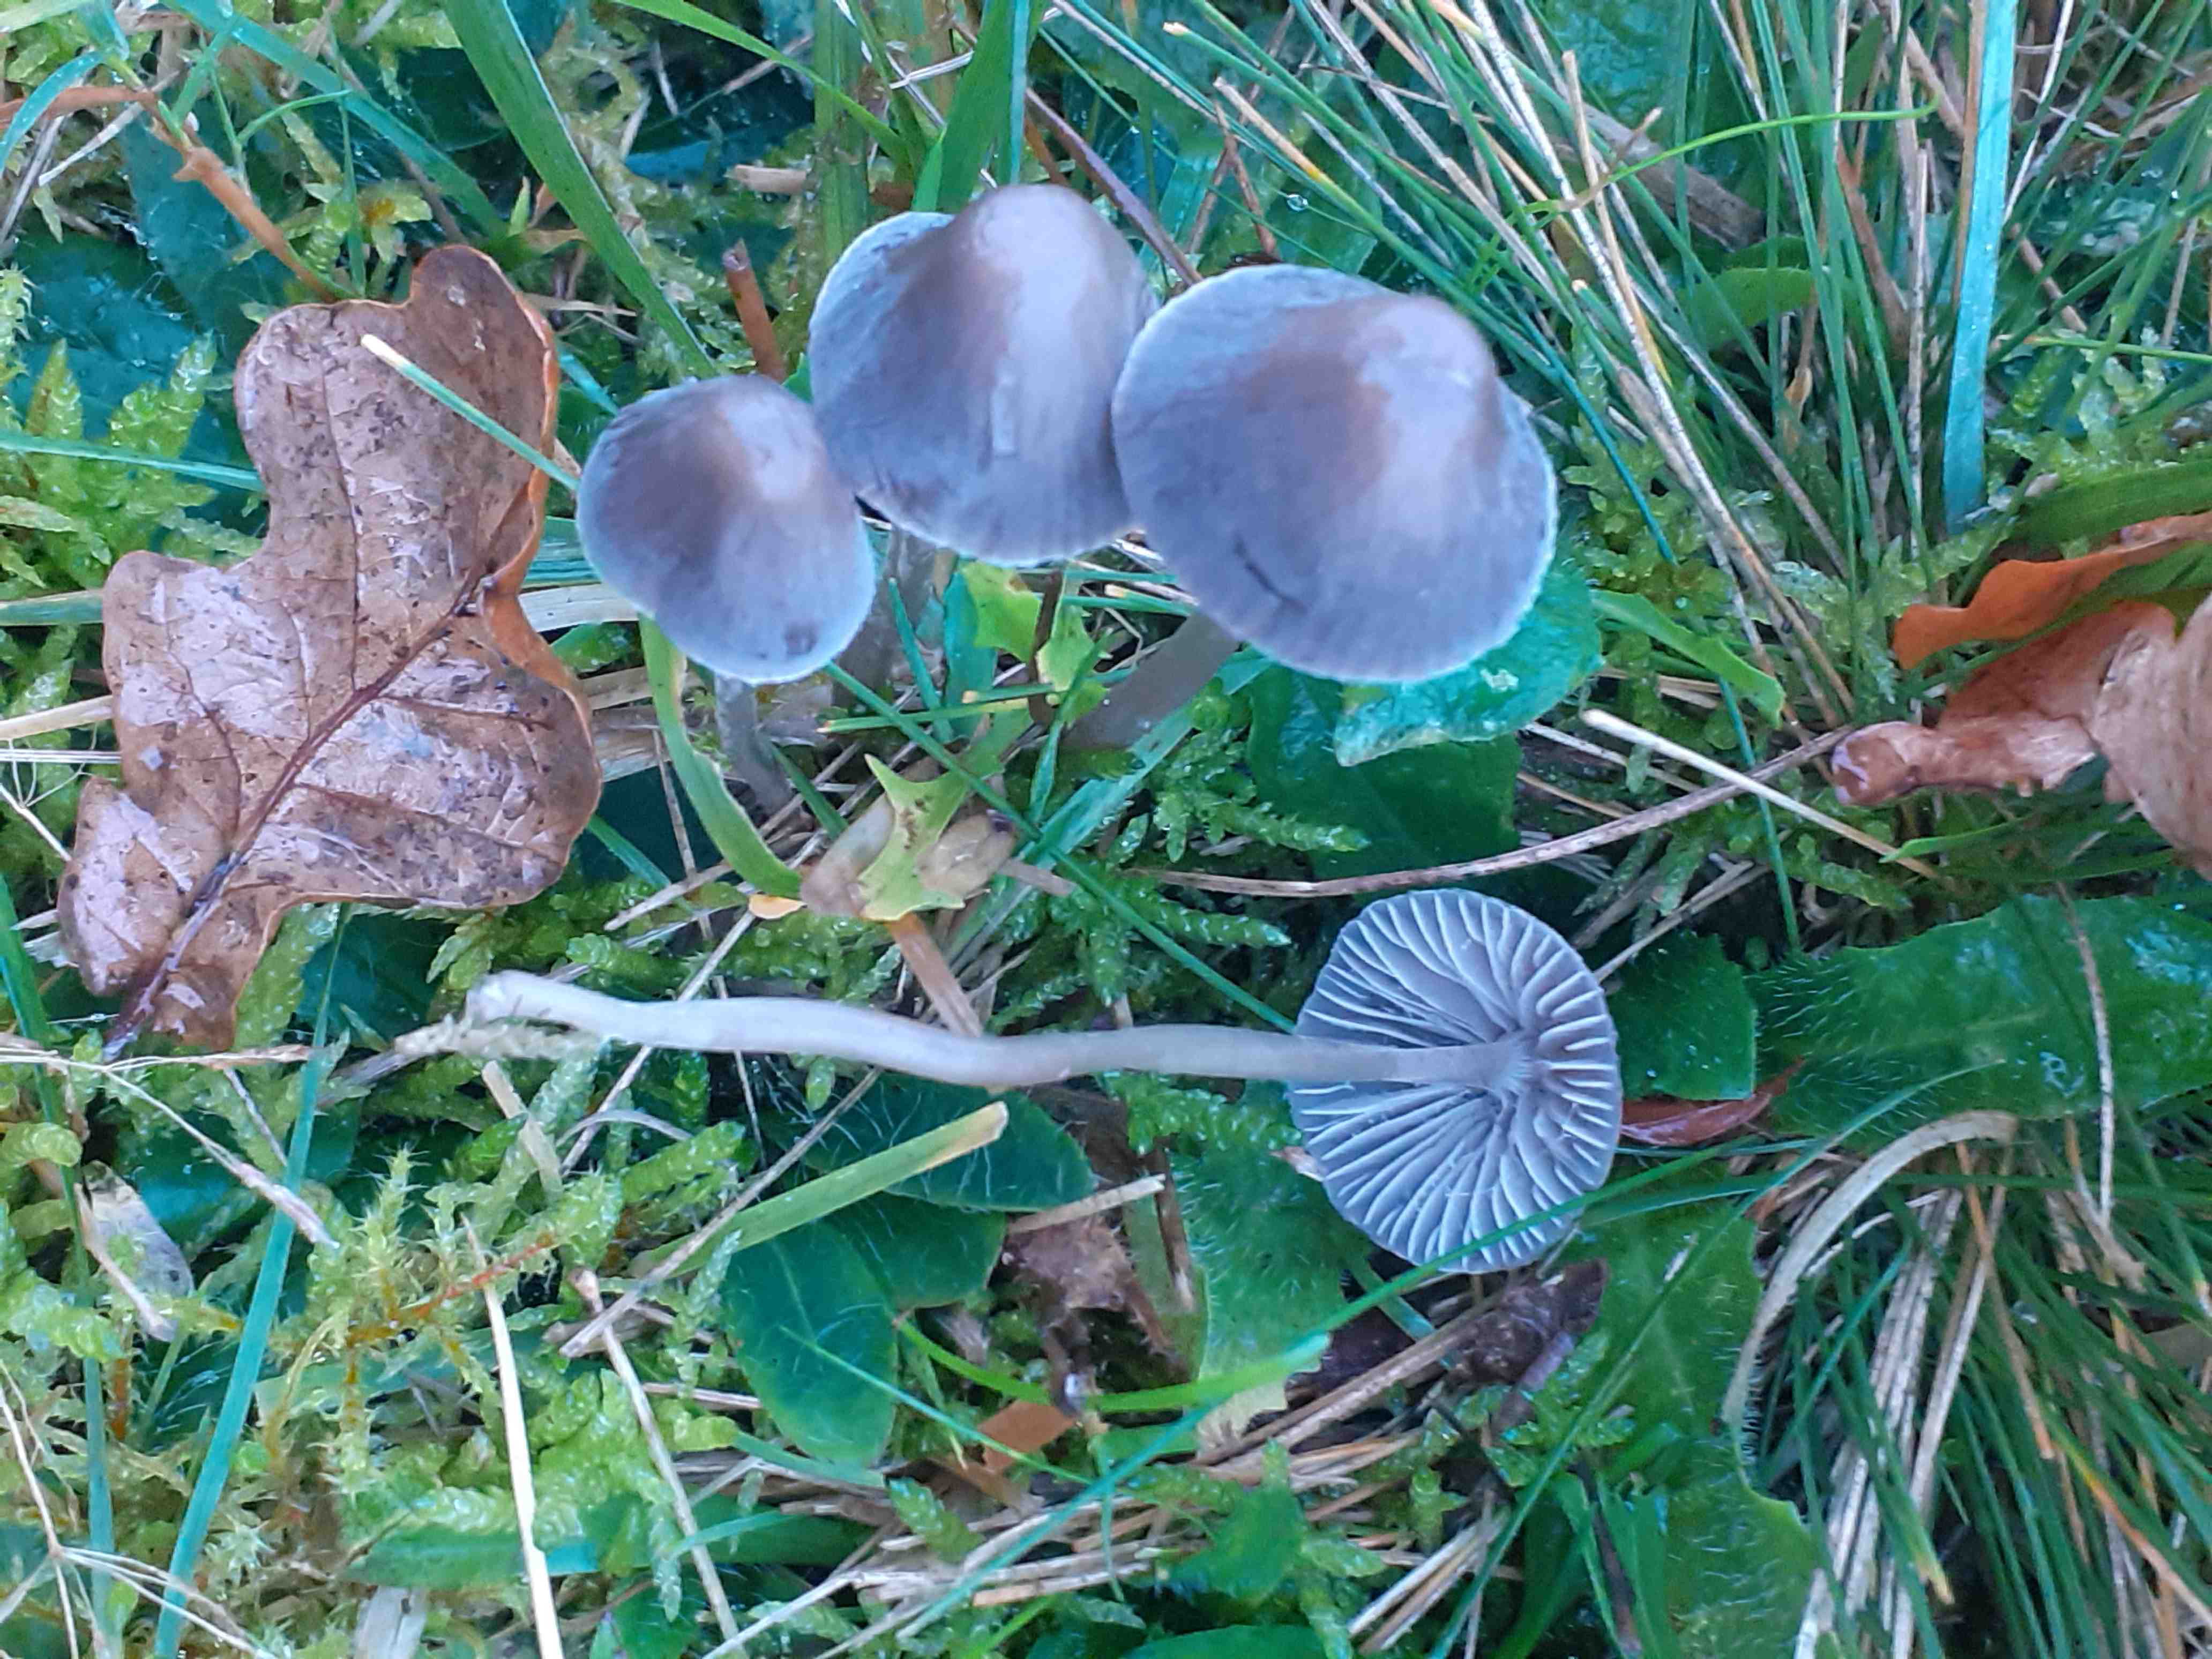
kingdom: Fungi
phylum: Basidiomycota
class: Agaricomycetes
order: Agaricales
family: Mycenaceae
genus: Mycena
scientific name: Mycena
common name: huesvamp
